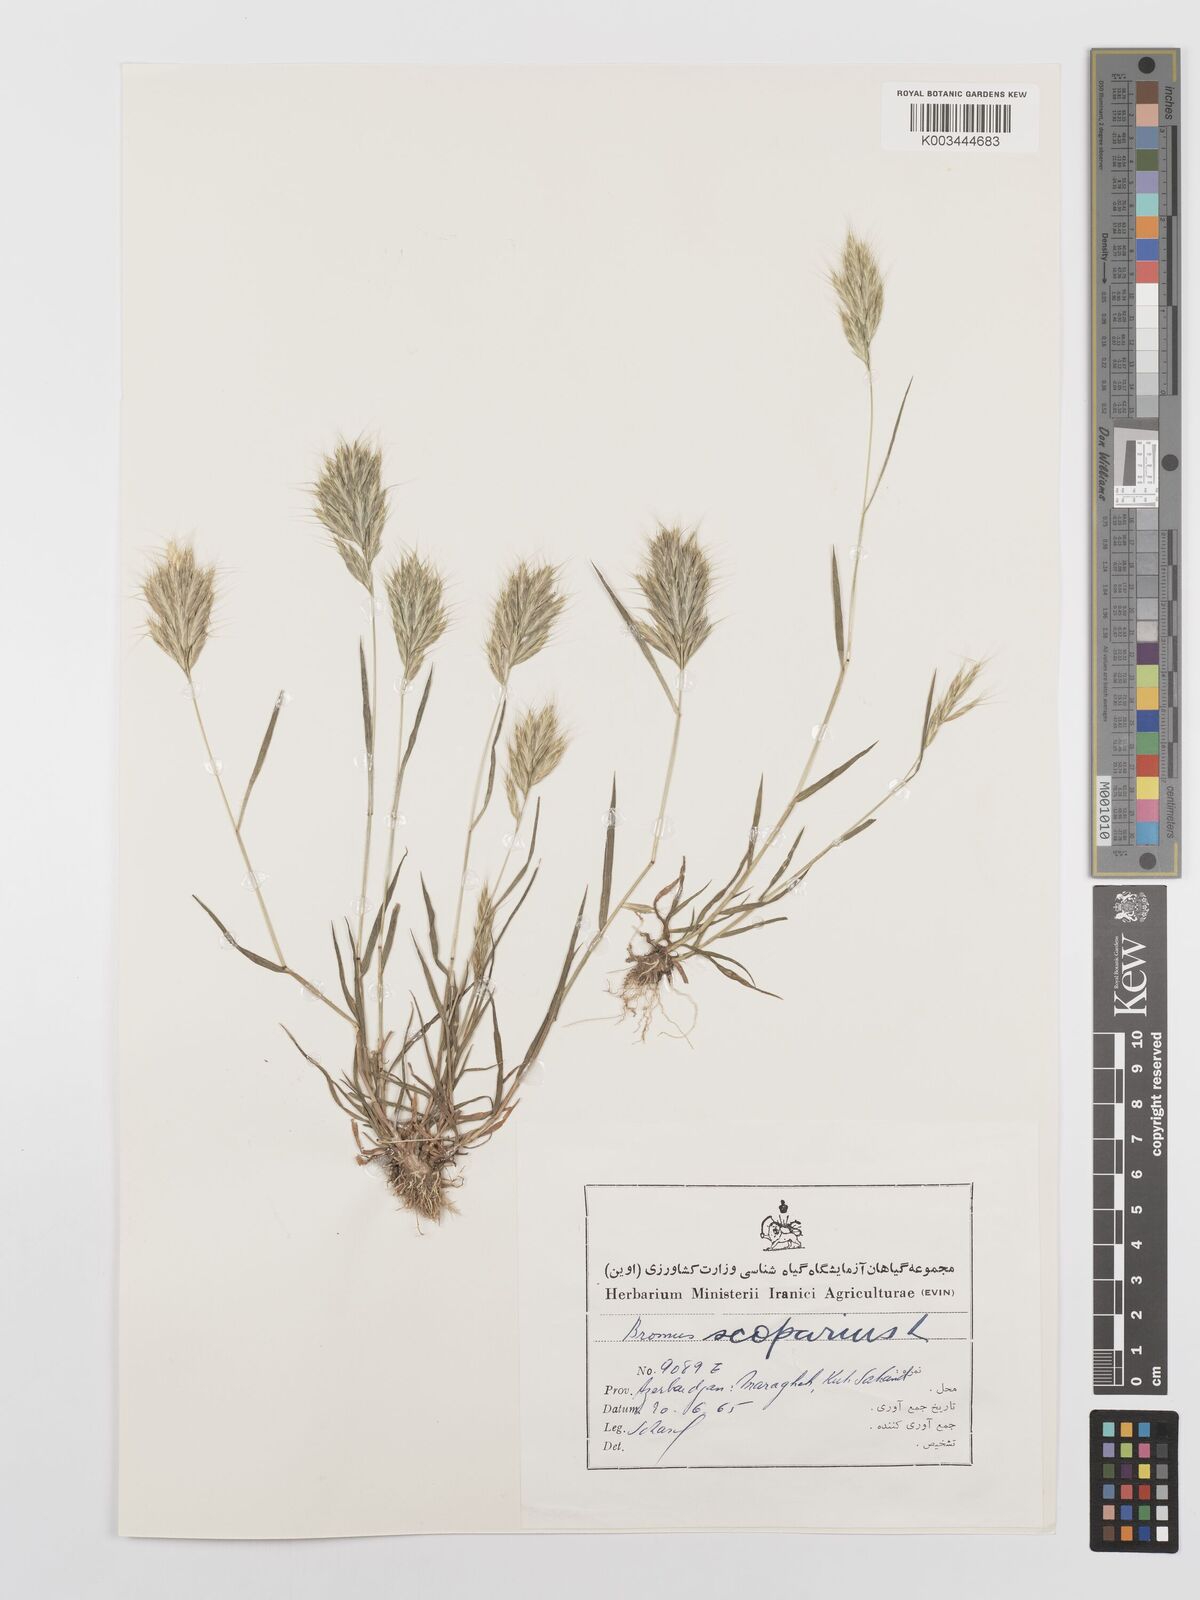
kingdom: Plantae
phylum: Tracheophyta
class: Liliopsida
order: Poales
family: Poaceae
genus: Bromus
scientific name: Bromus scoparius
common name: Broom brome
